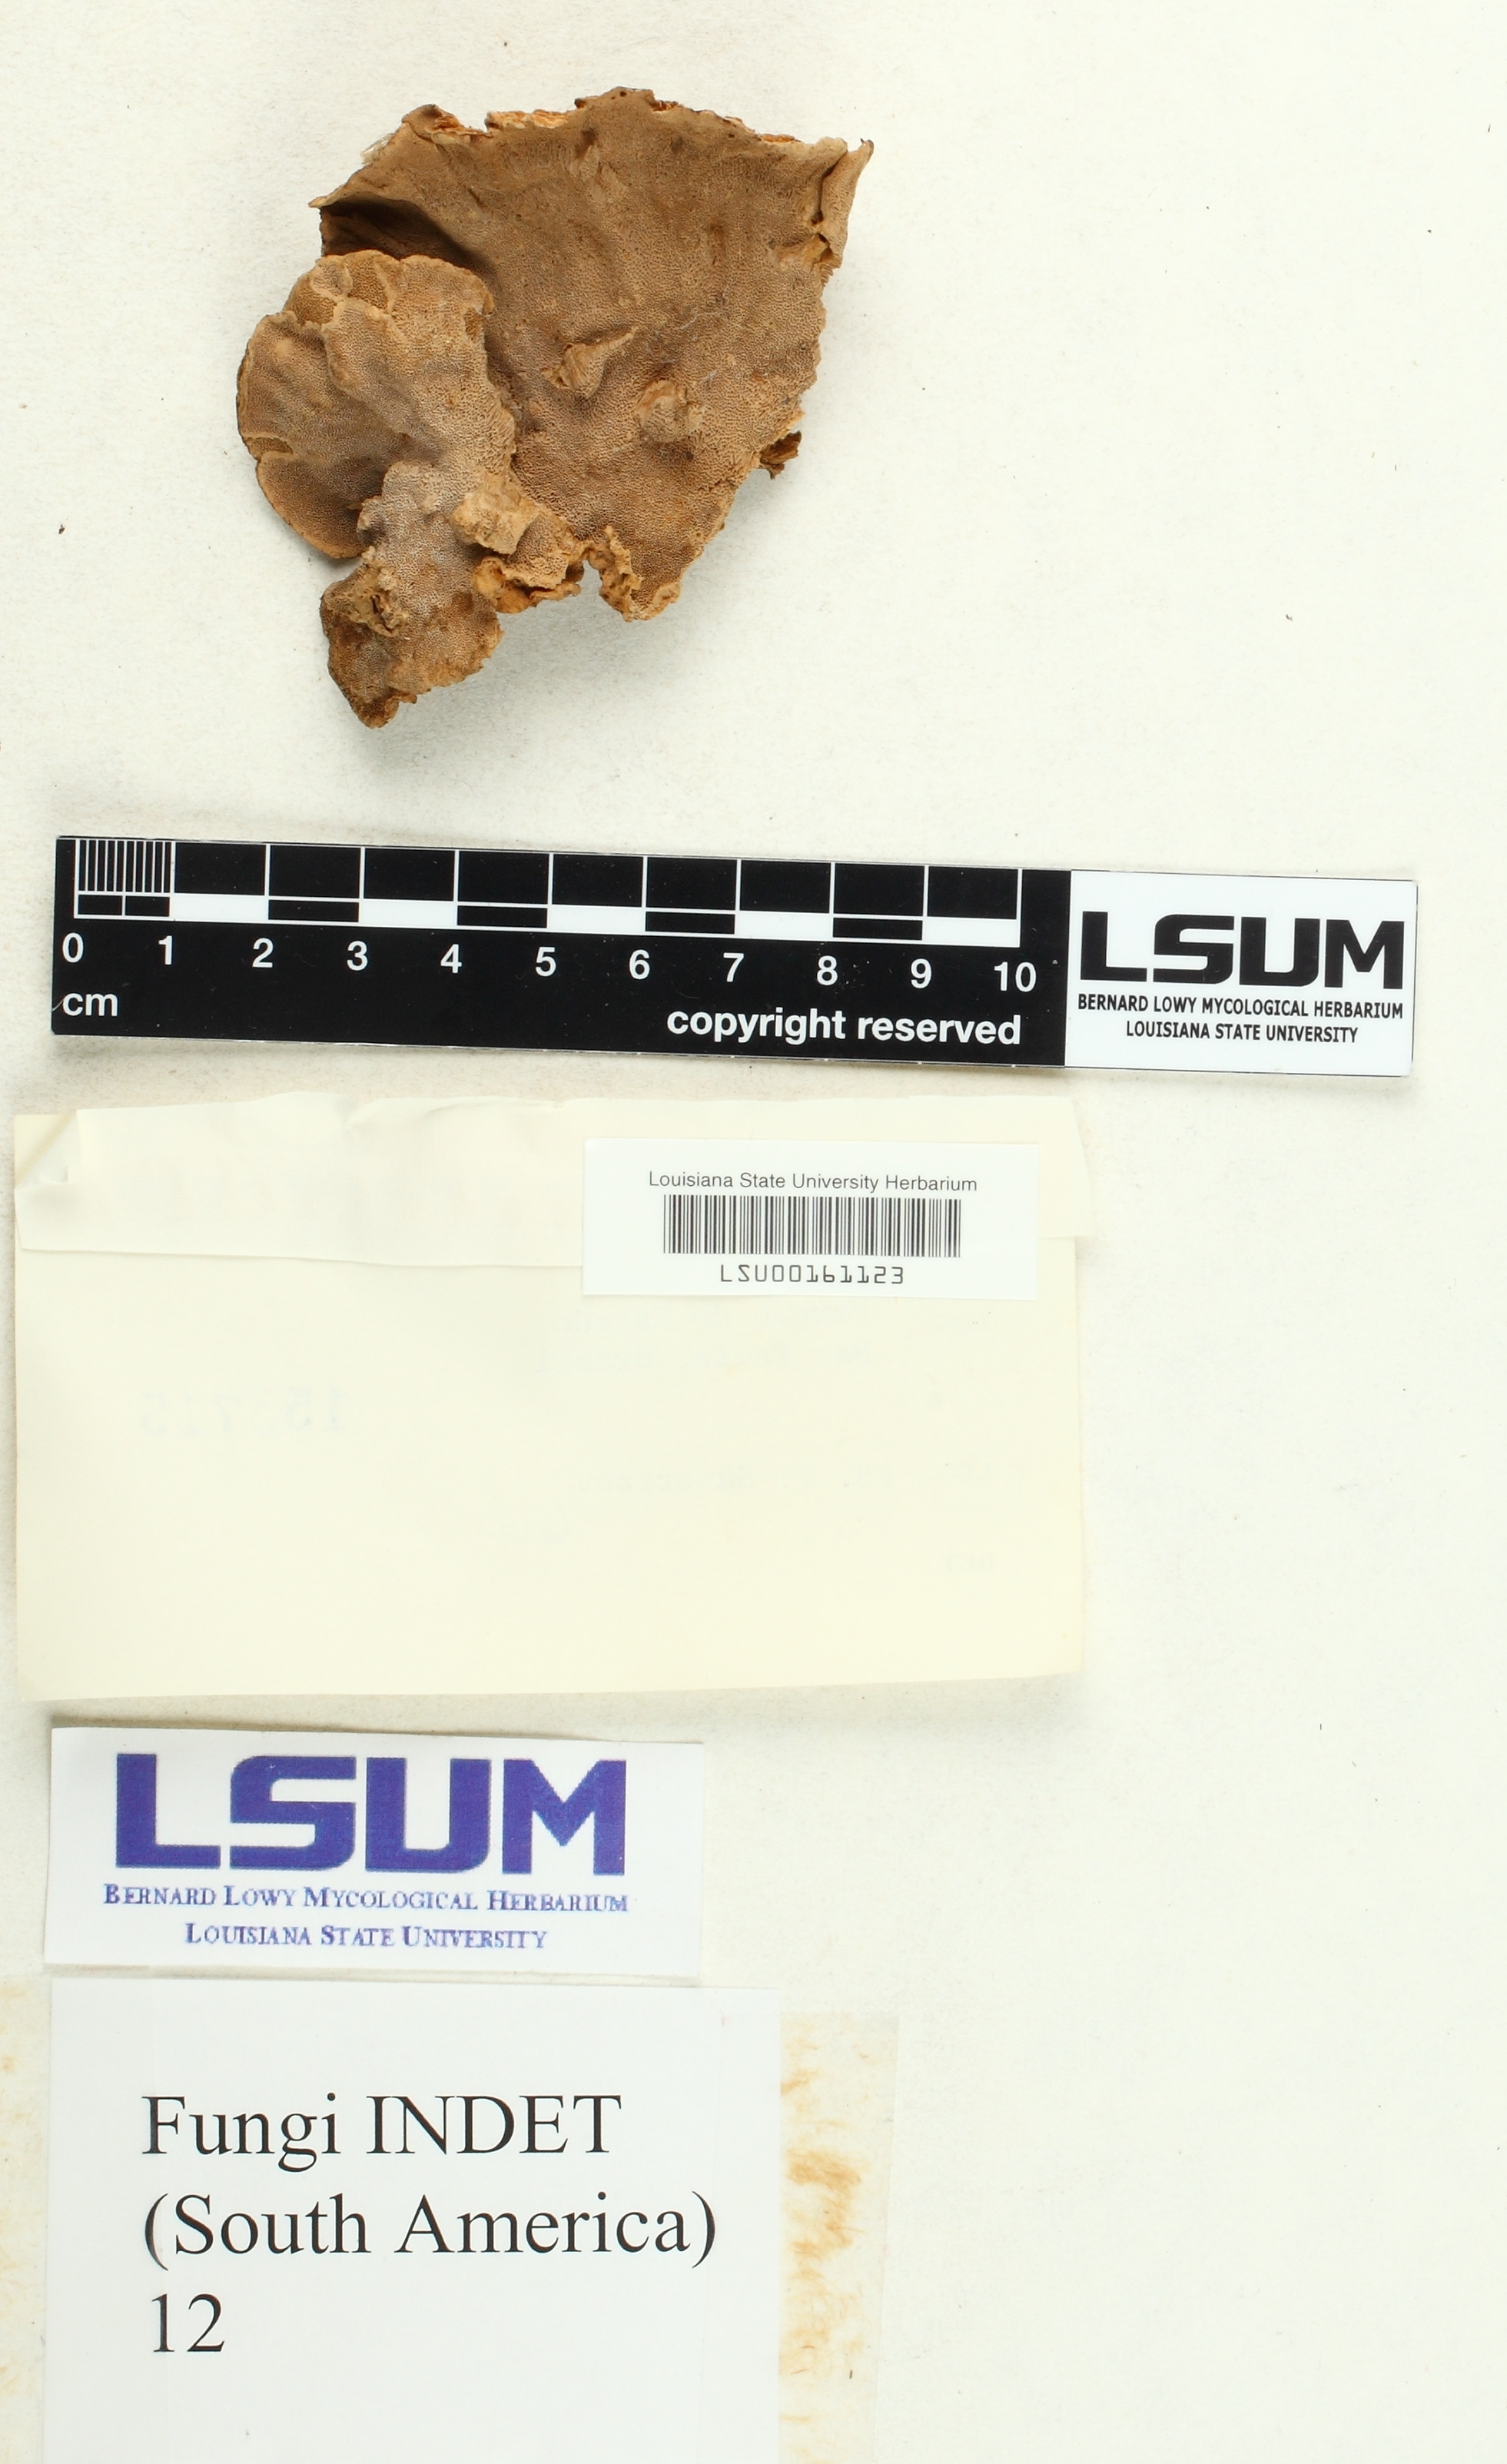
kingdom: Fungi
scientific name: Fungi
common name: Fungi
